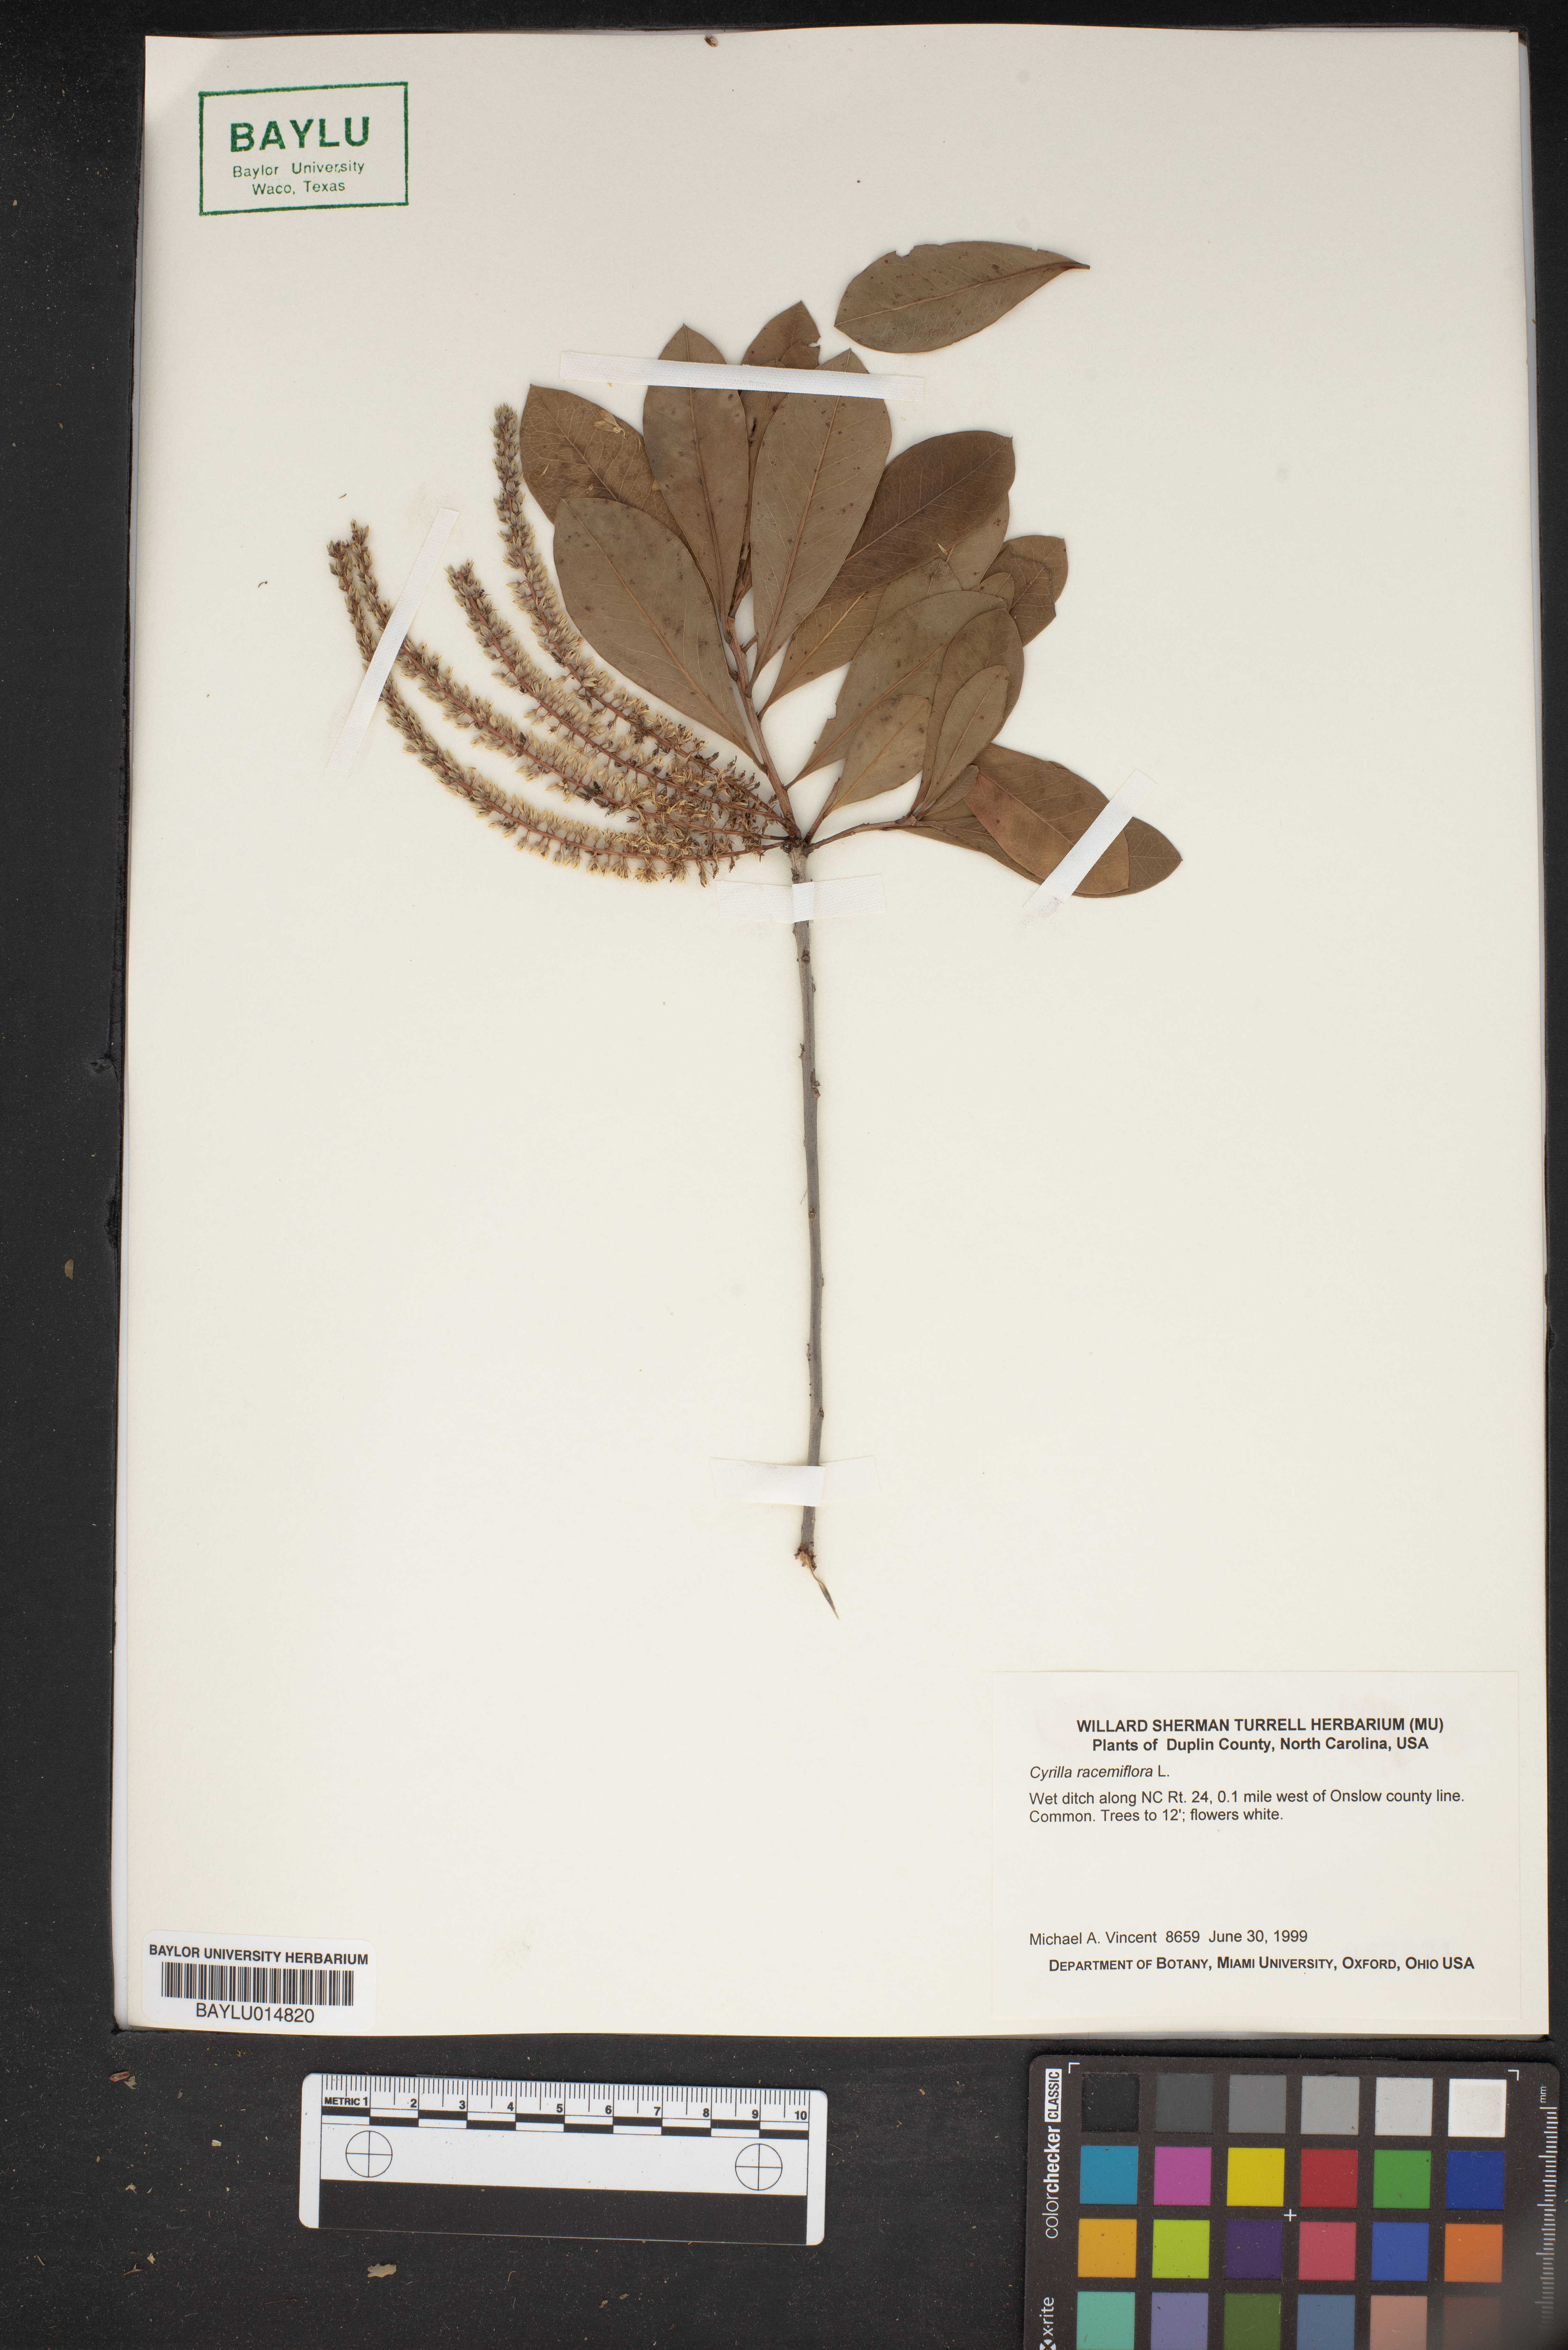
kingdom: Plantae
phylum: Tracheophyta
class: Magnoliopsida
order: Ericales
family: Cyrillaceae
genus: Cyrilla
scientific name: Cyrilla racemiflora
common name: Black titi
